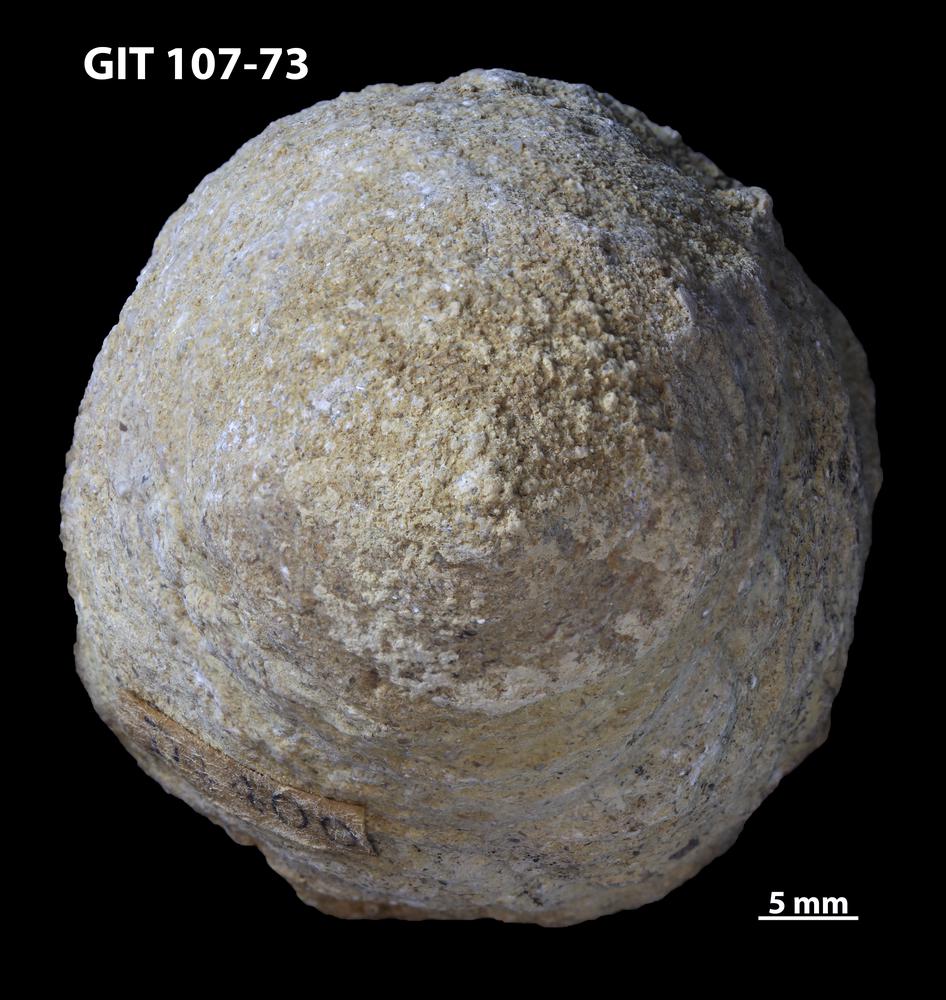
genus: Amphorichnus
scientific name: Amphorichnus
